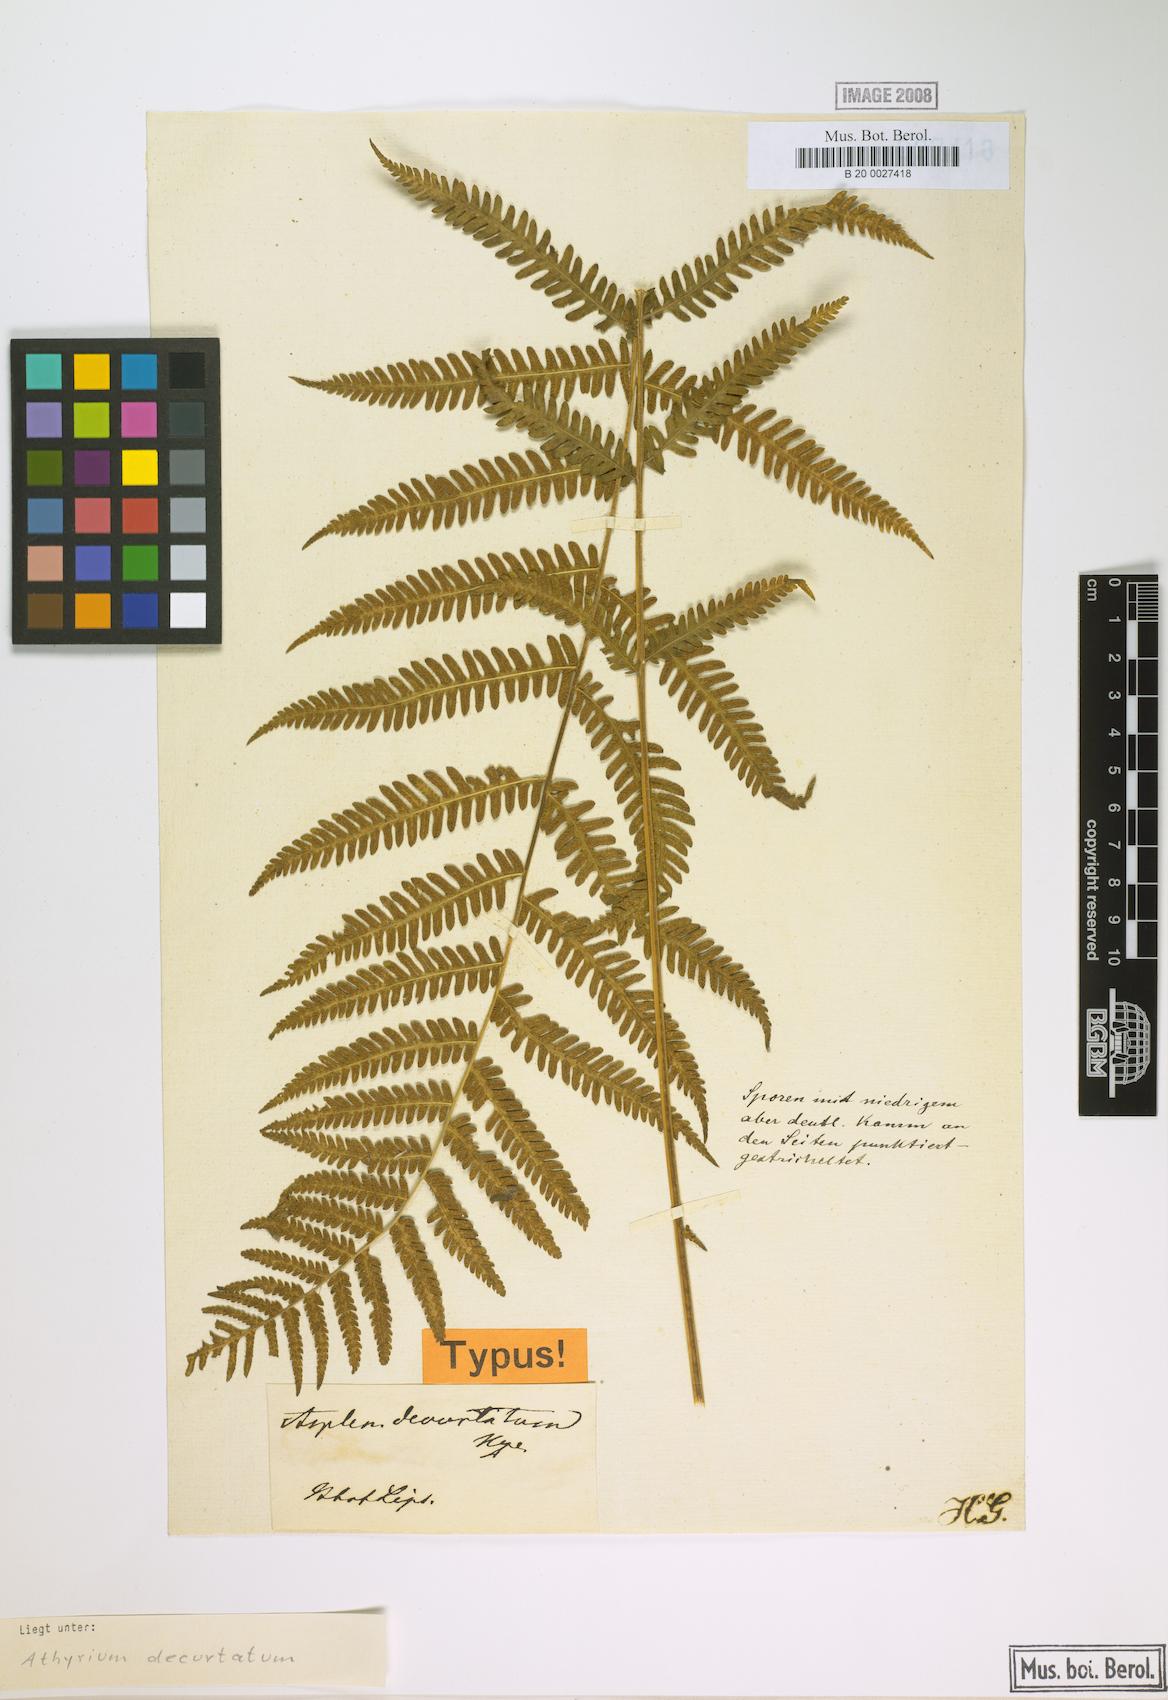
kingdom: Plantae
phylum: Tracheophyta
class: Polypodiopsida
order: Polypodiales
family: Thelypteridaceae
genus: Amauropelta
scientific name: Amauropelta decurtata
